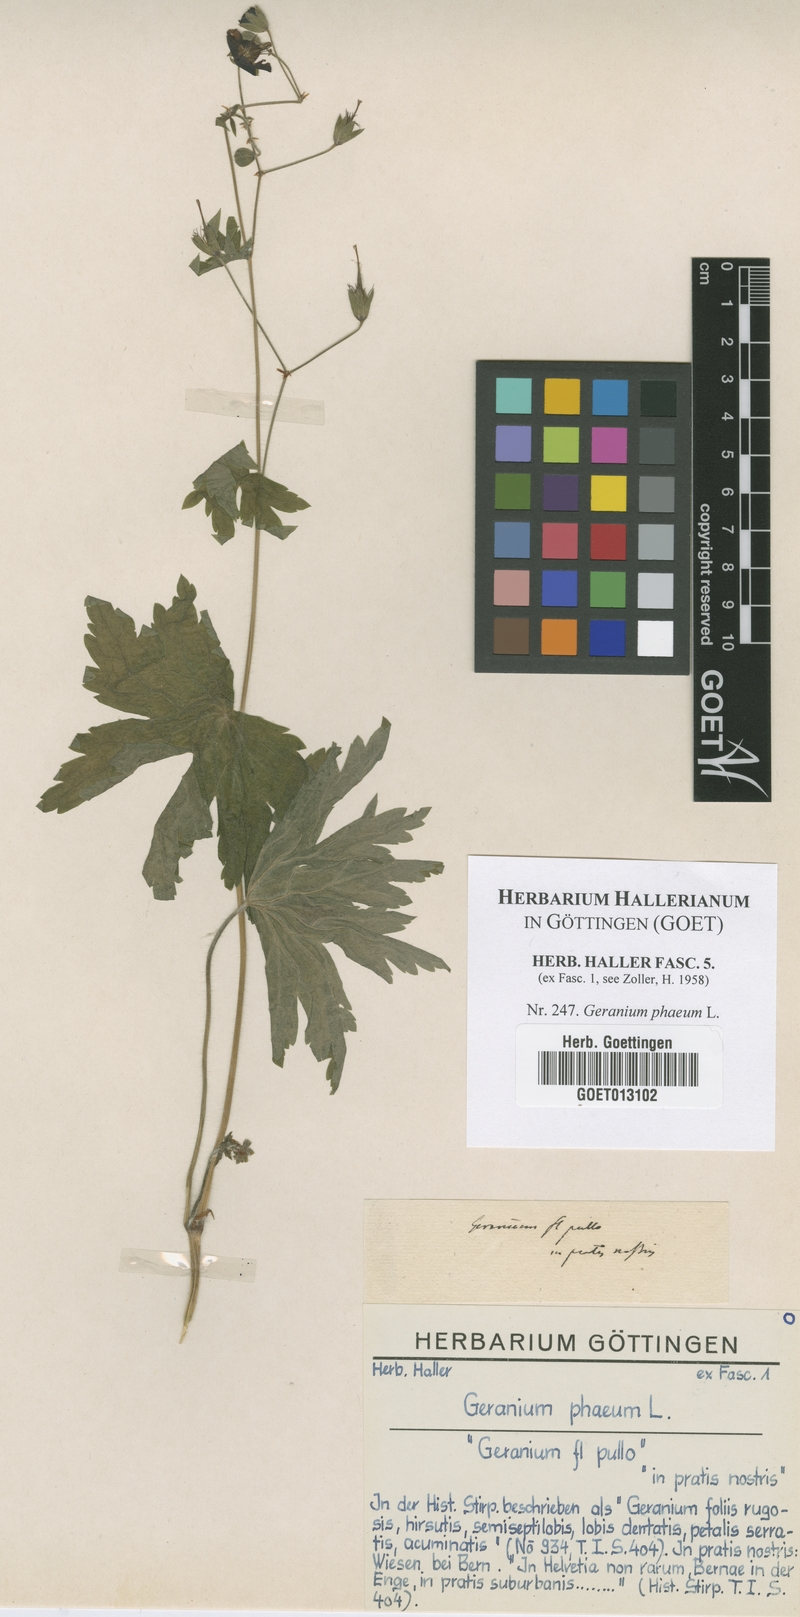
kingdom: Plantae
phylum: Tracheophyta
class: Magnoliopsida
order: Geraniales
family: Geraniaceae
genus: Geranium
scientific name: Geranium phaeum
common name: Dusky crane's-bill
